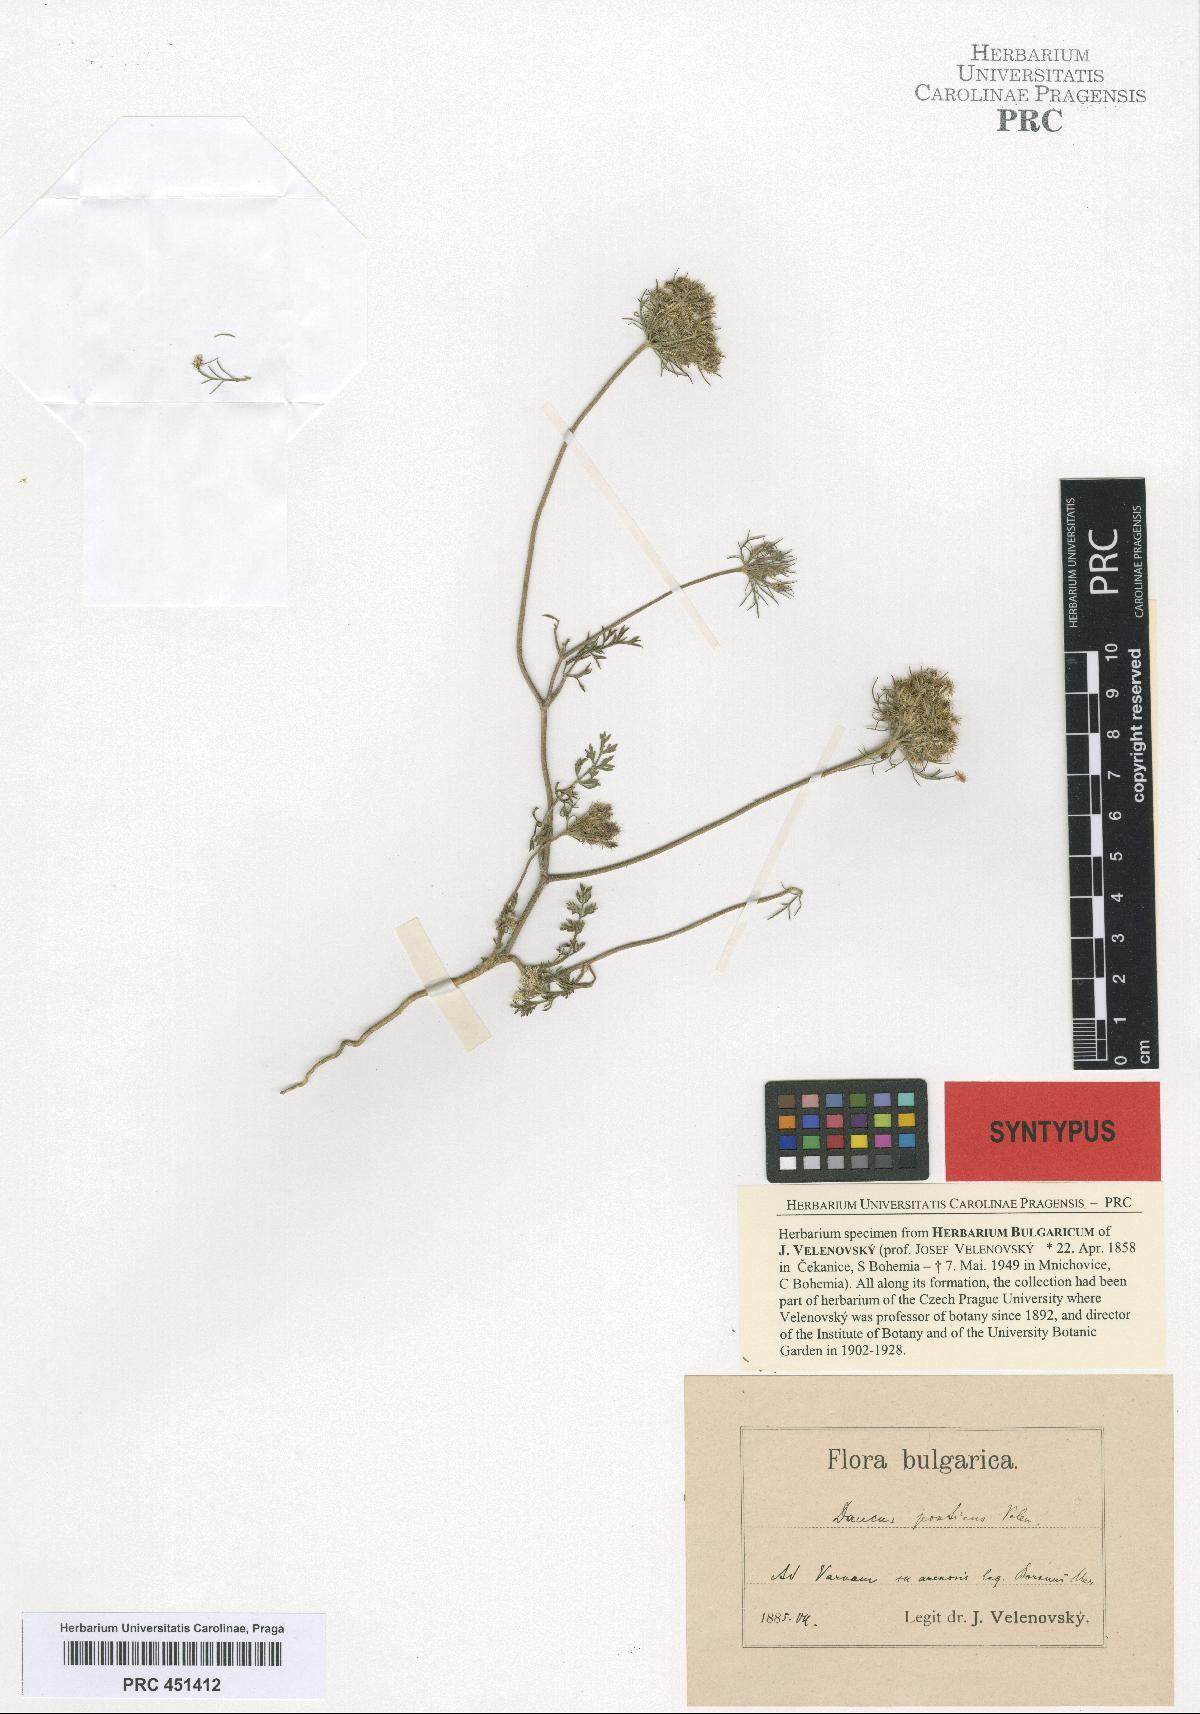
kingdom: Plantae
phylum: Tracheophyta
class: Magnoliopsida
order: Apiales
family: Apiaceae
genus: Daucus
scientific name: Daucus guttatus
